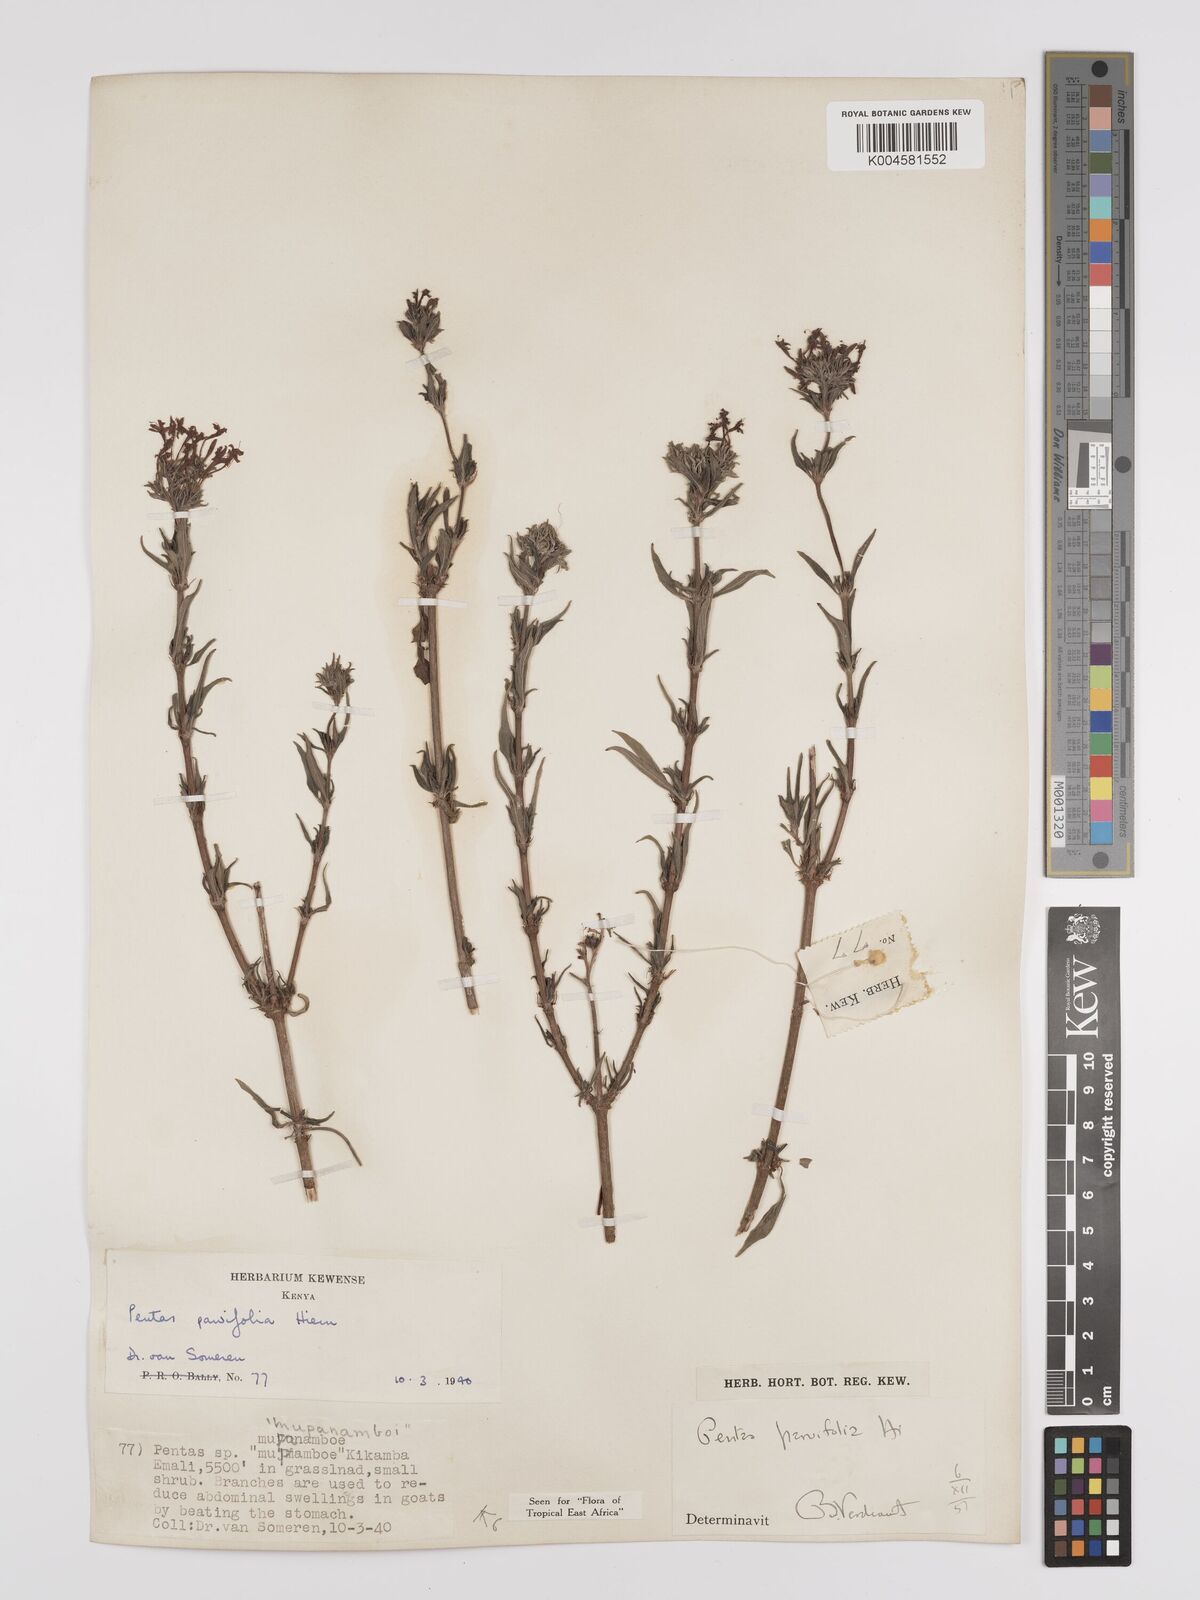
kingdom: Plantae
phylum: Tracheophyta
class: Magnoliopsida
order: Gentianales
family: Rubiaceae
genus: Rhodopentas
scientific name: Rhodopentas parvifolia
